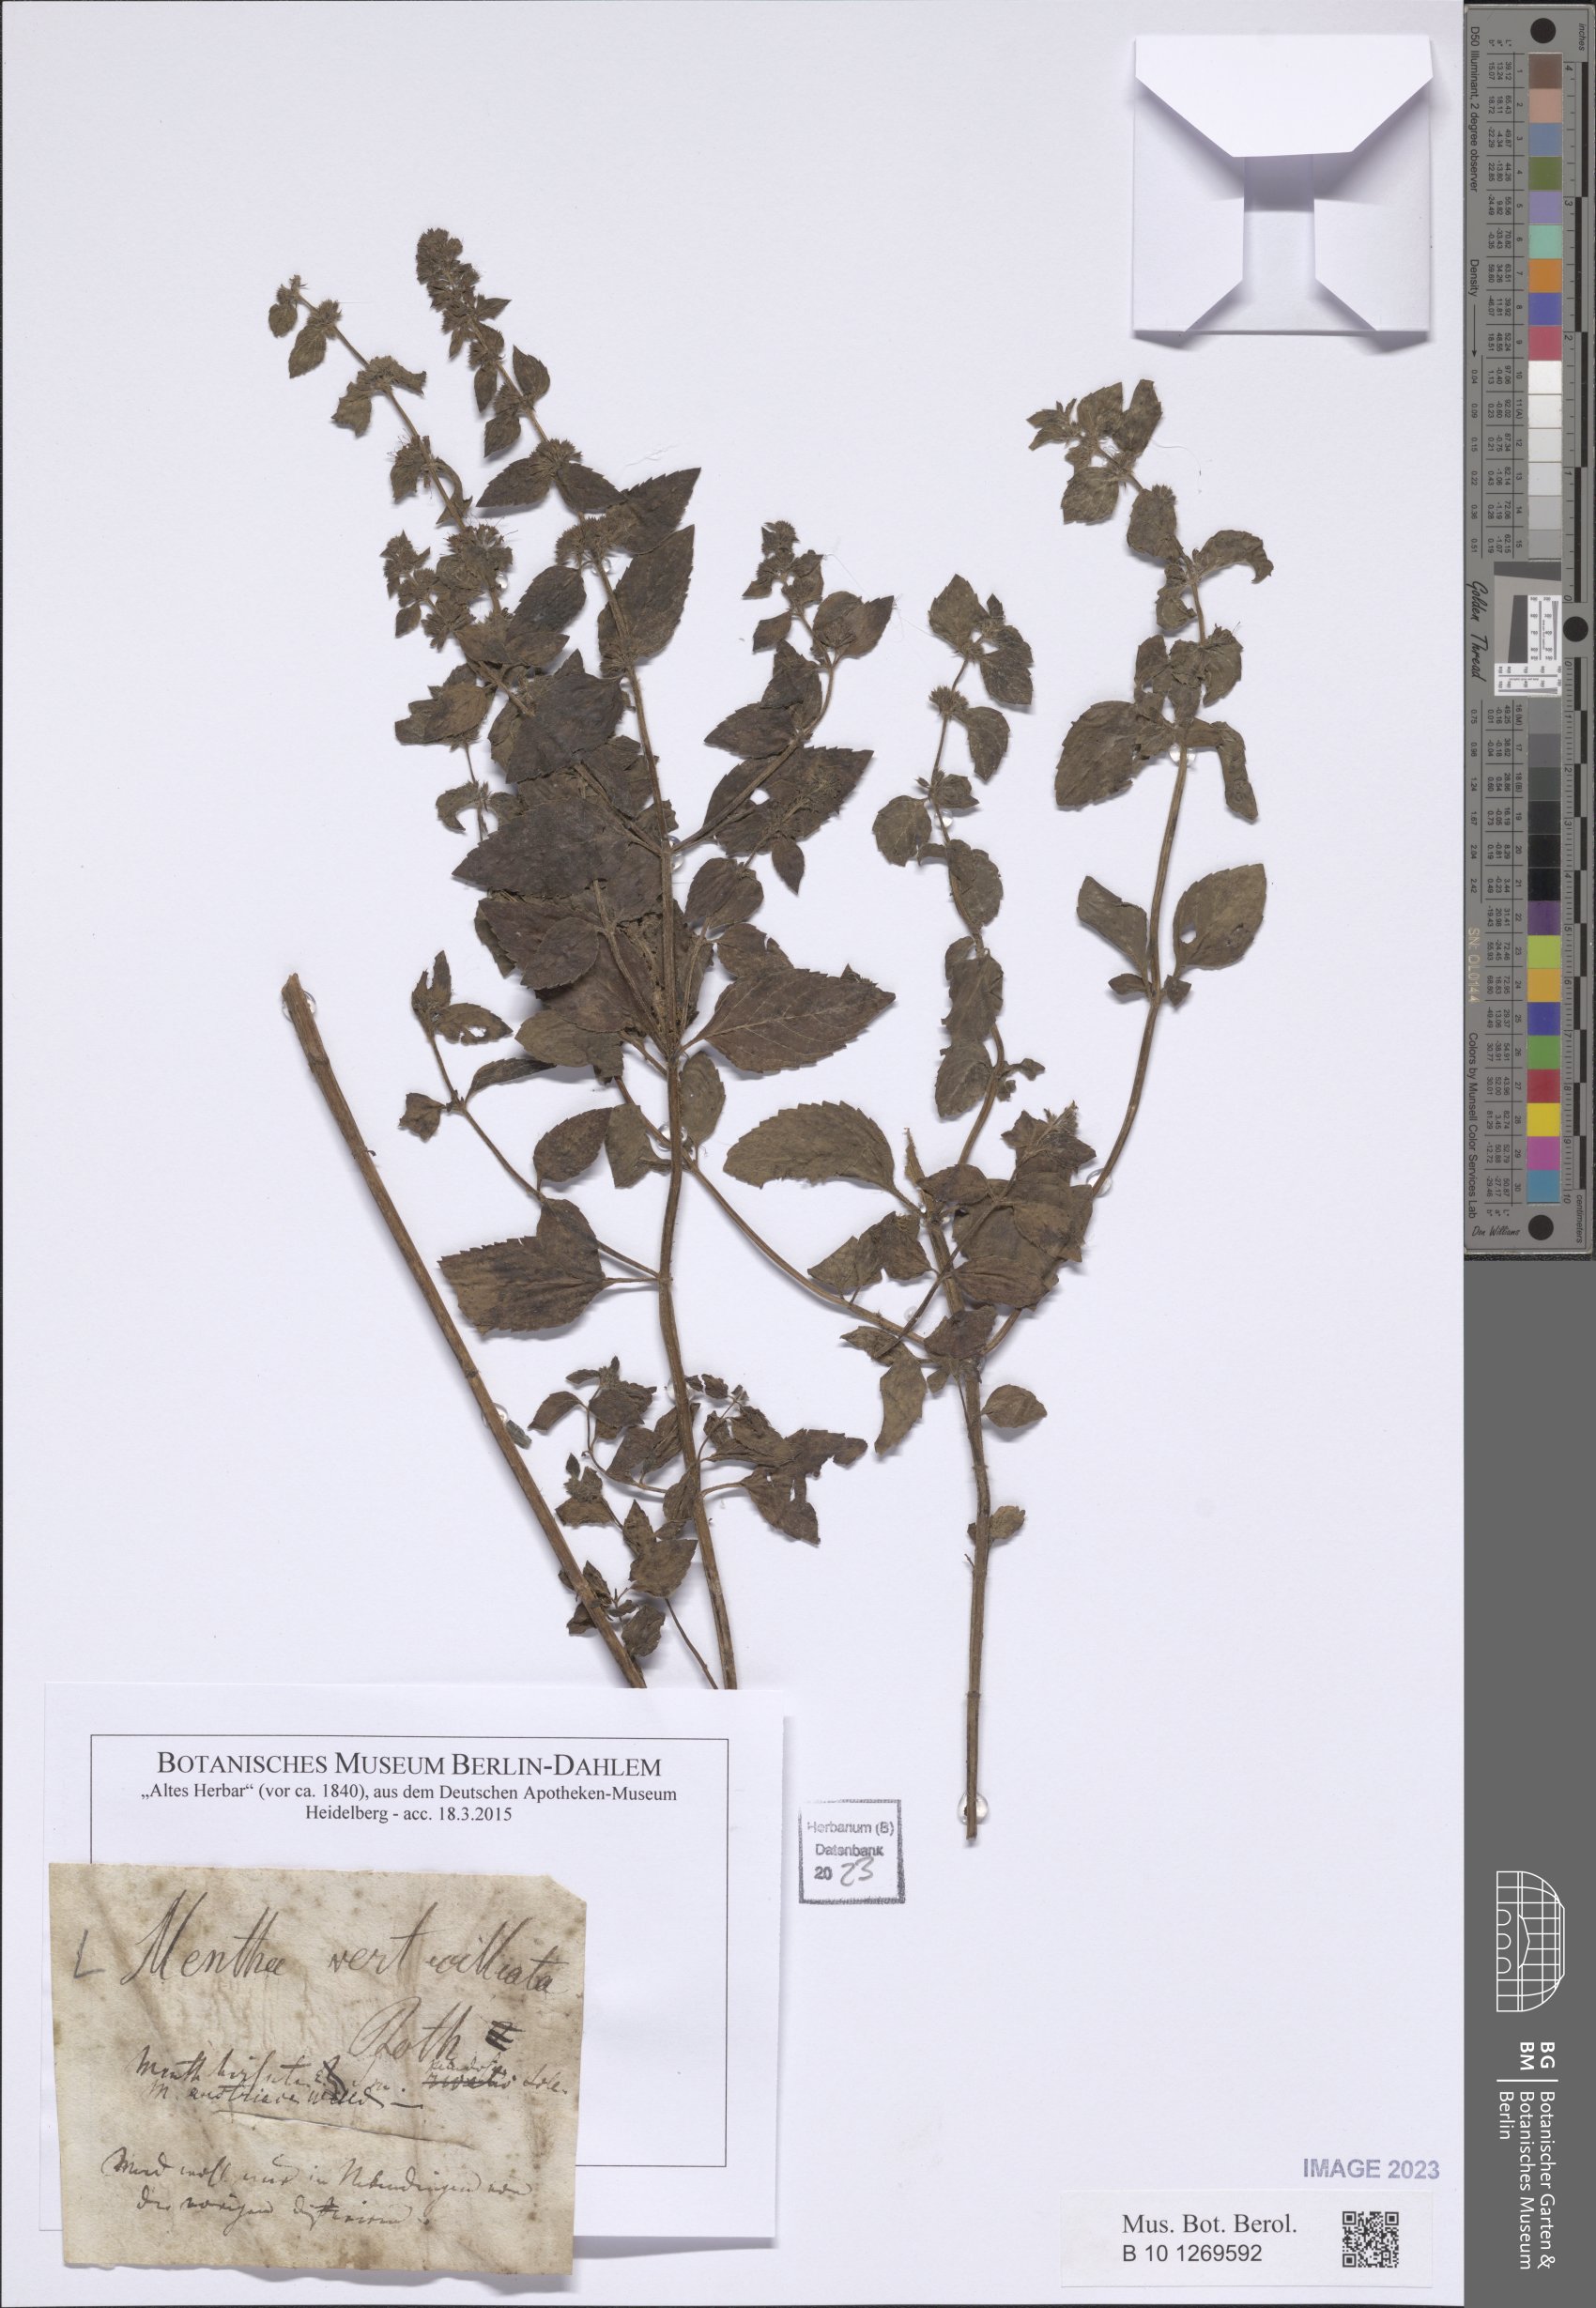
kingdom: Plantae
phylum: Tracheophyta
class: Magnoliopsida
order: Lamiales
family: Lamiaceae
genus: Mentha
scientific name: Mentha verticillata
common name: Mint
